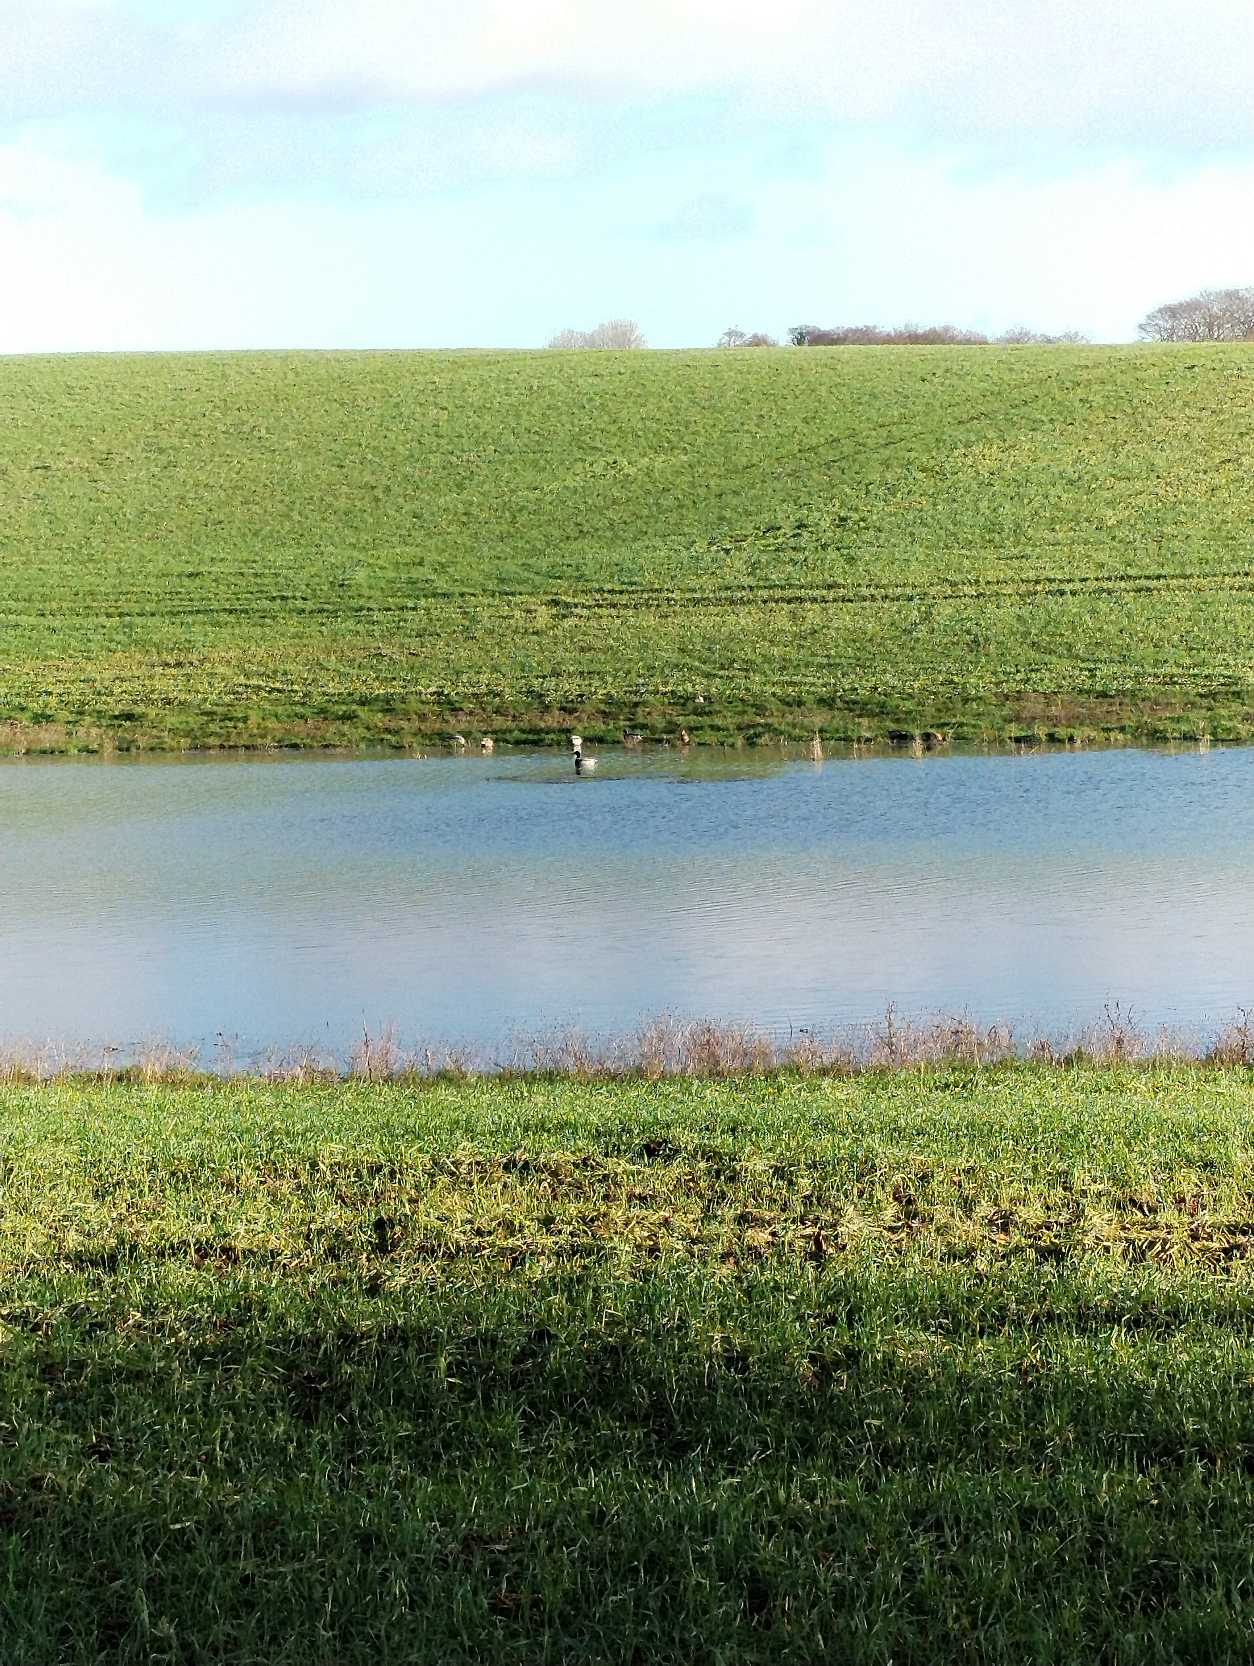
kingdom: Animalia
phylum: Chordata
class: Aves
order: Anseriformes
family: Anatidae
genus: Anas
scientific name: Anas platyrhynchos
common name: Gråand
